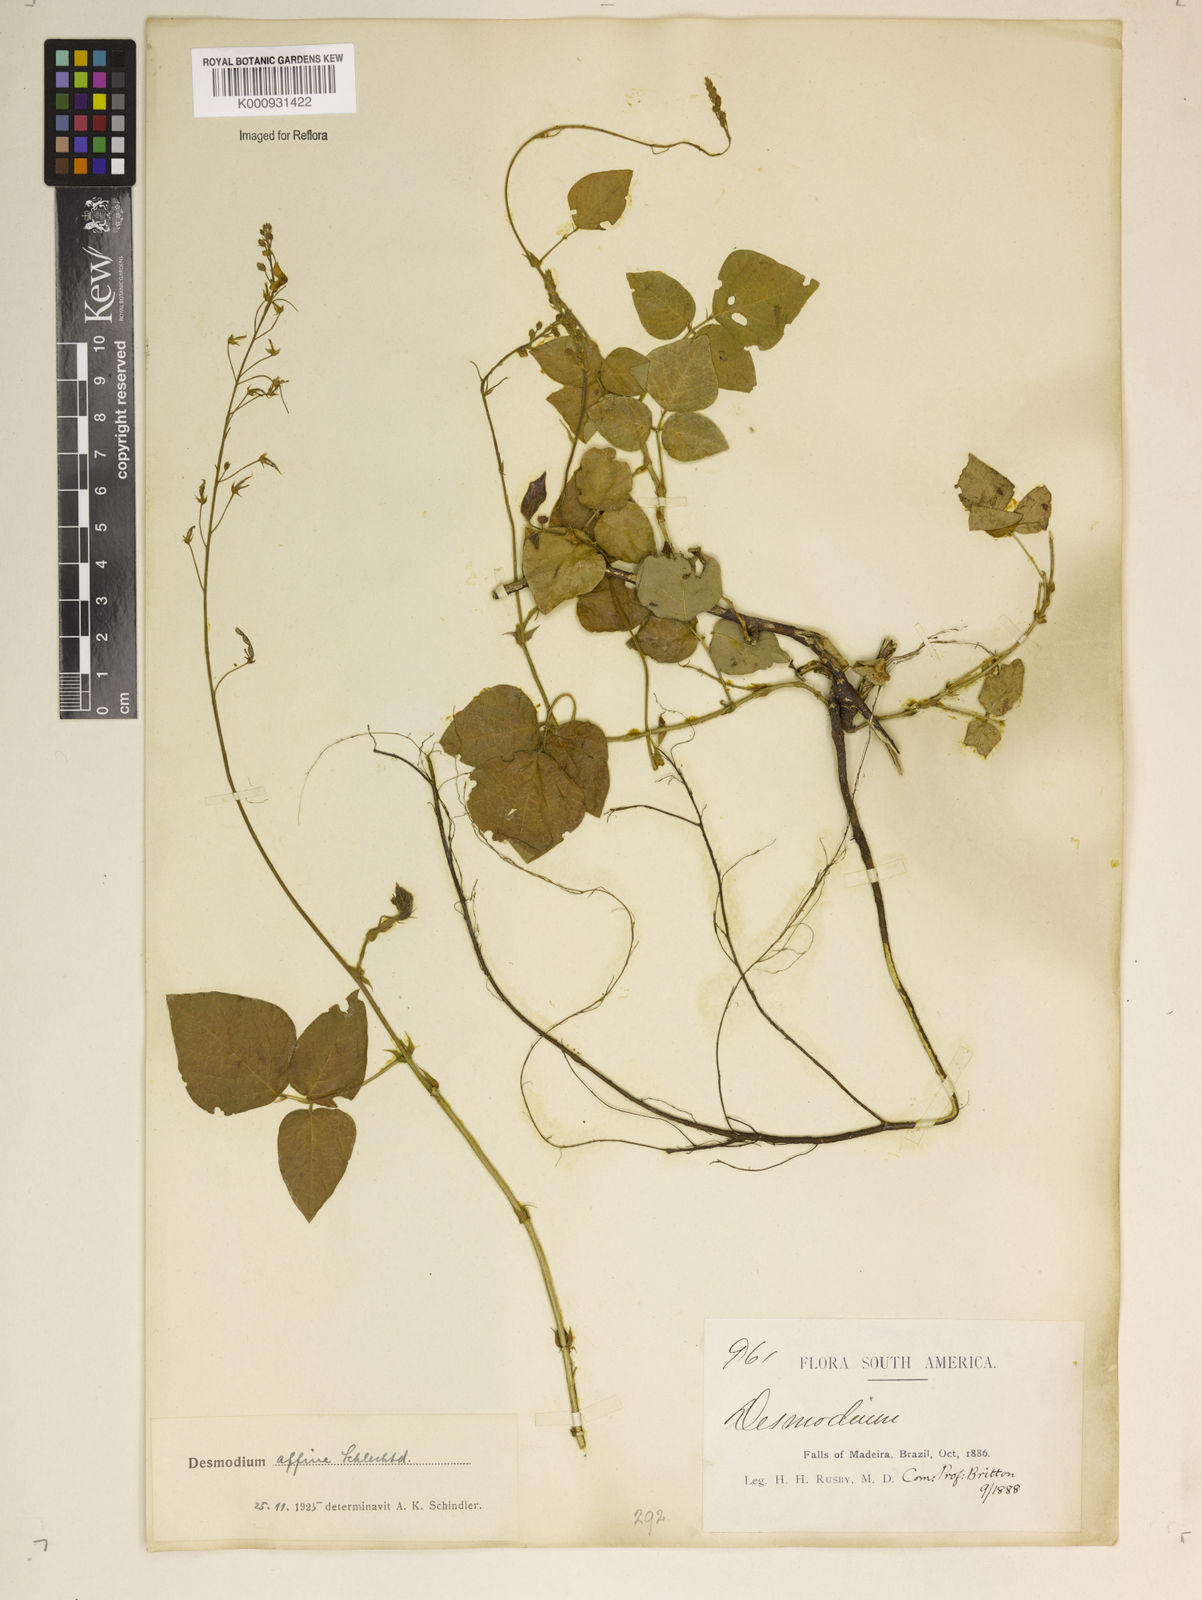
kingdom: Plantae
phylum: Tracheophyta
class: Magnoliopsida
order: Fabales
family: Fabaceae
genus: Desmodium
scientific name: Desmodium affine
